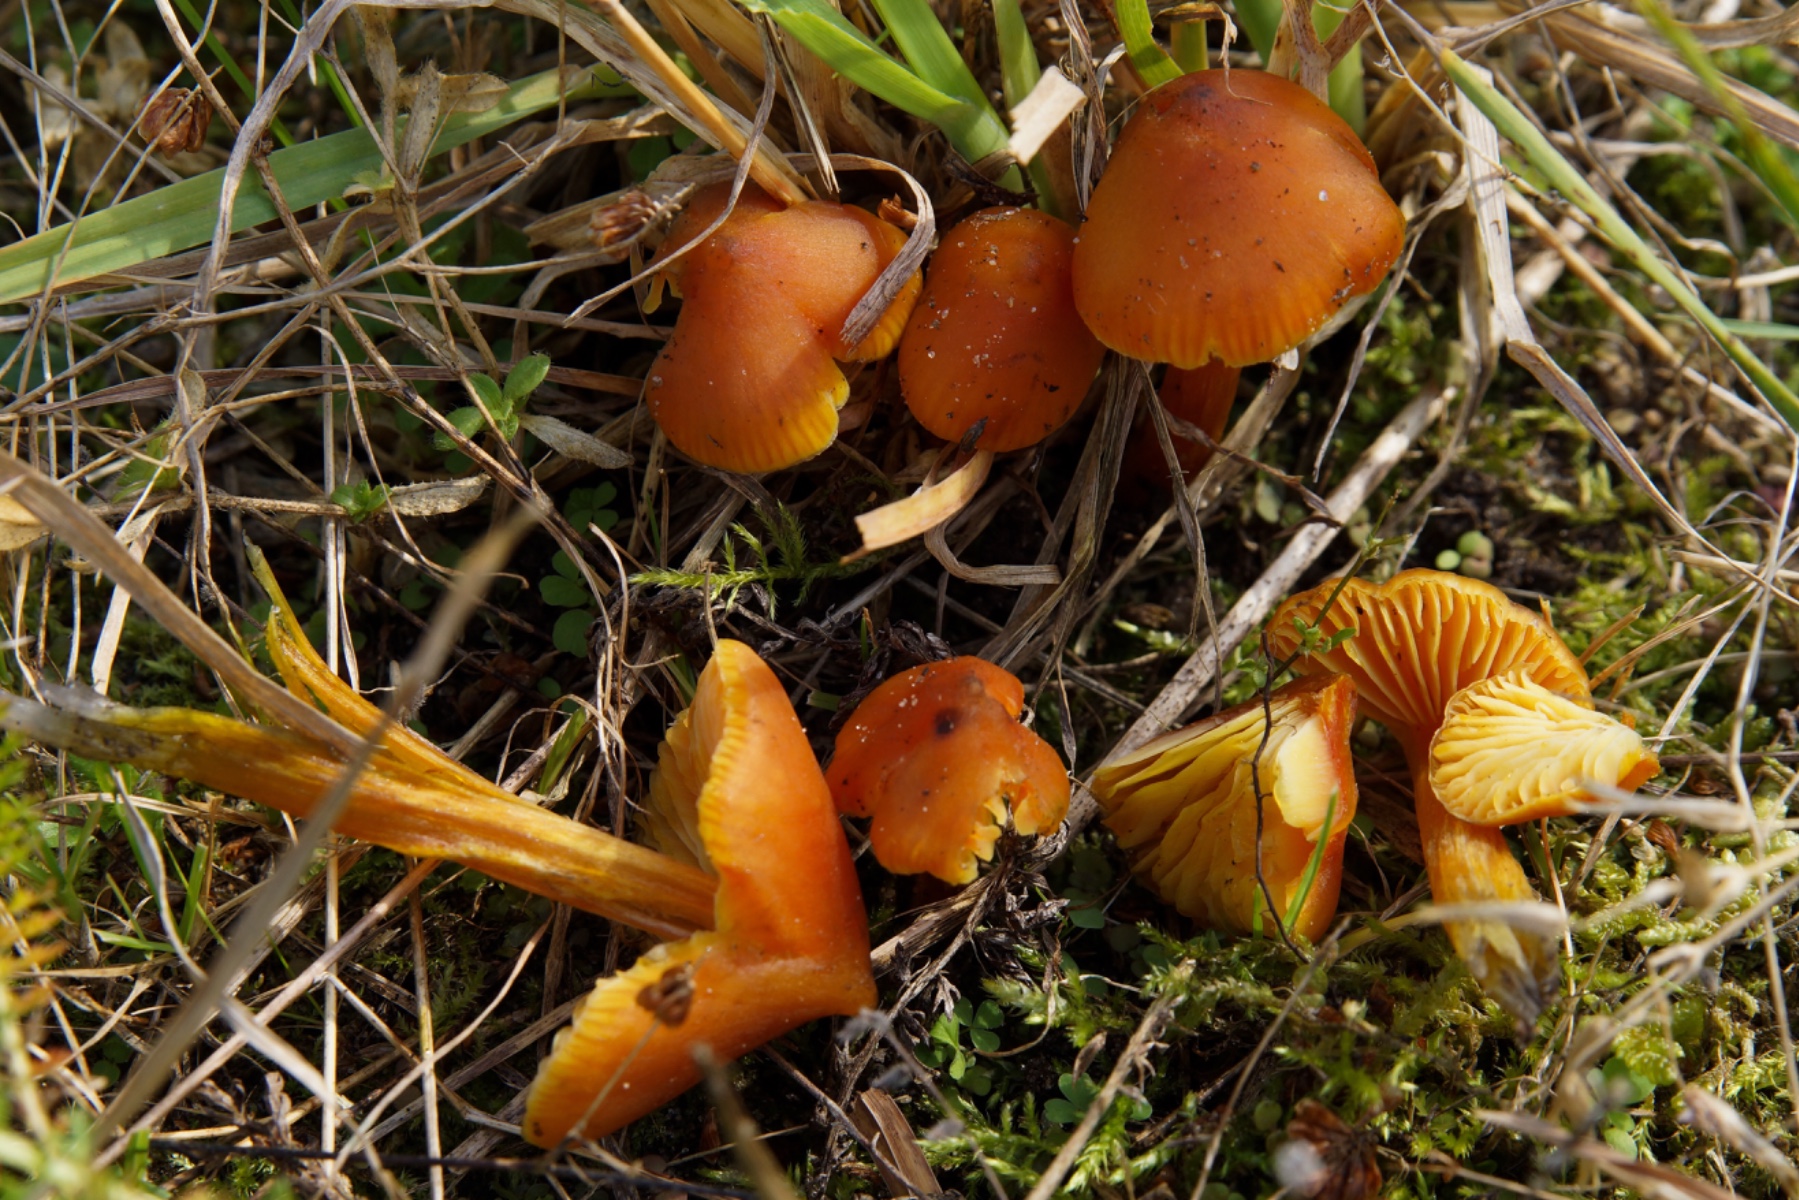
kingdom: Fungi
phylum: Basidiomycota
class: Agaricomycetes
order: Agaricales
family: Hygrophoraceae
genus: Hygrocybe
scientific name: Hygrocybe conica
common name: kegle-vokshat
